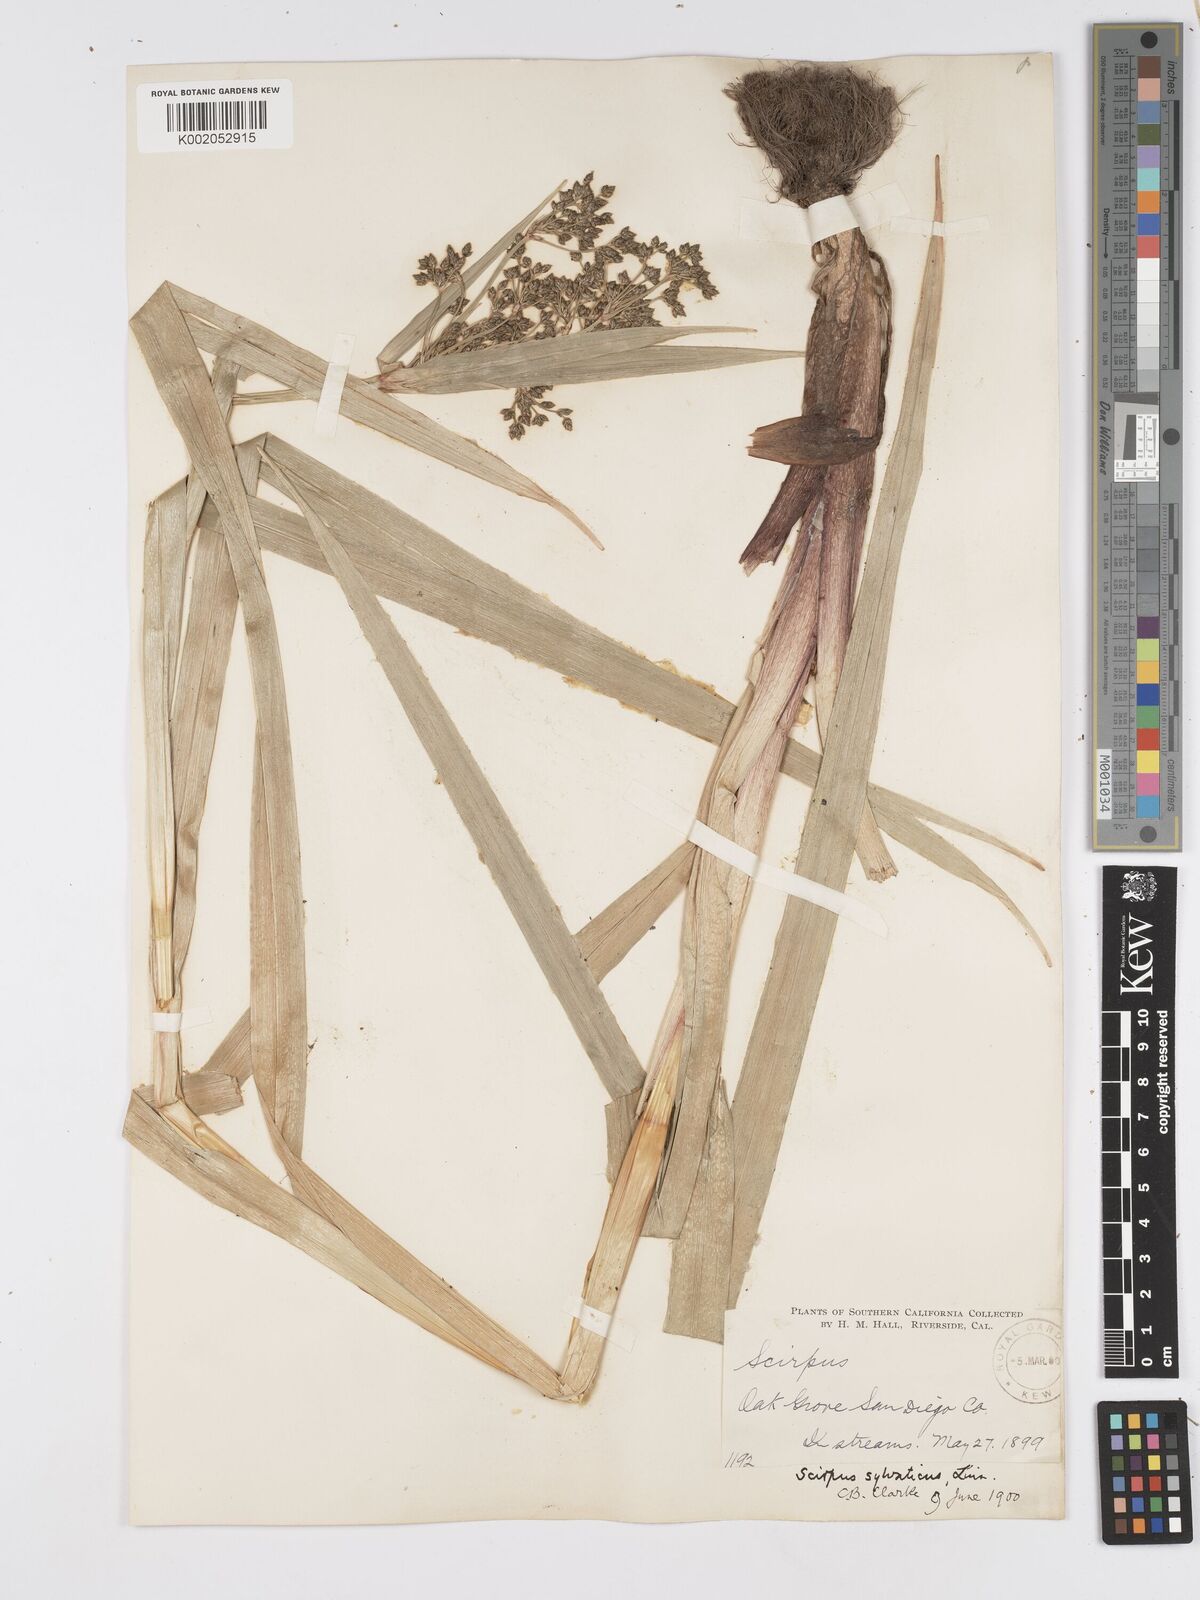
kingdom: Plantae
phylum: Tracheophyta
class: Liliopsida
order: Poales
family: Cyperaceae
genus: Scirpus
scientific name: Scirpus sylvaticus
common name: Wood club-rush
